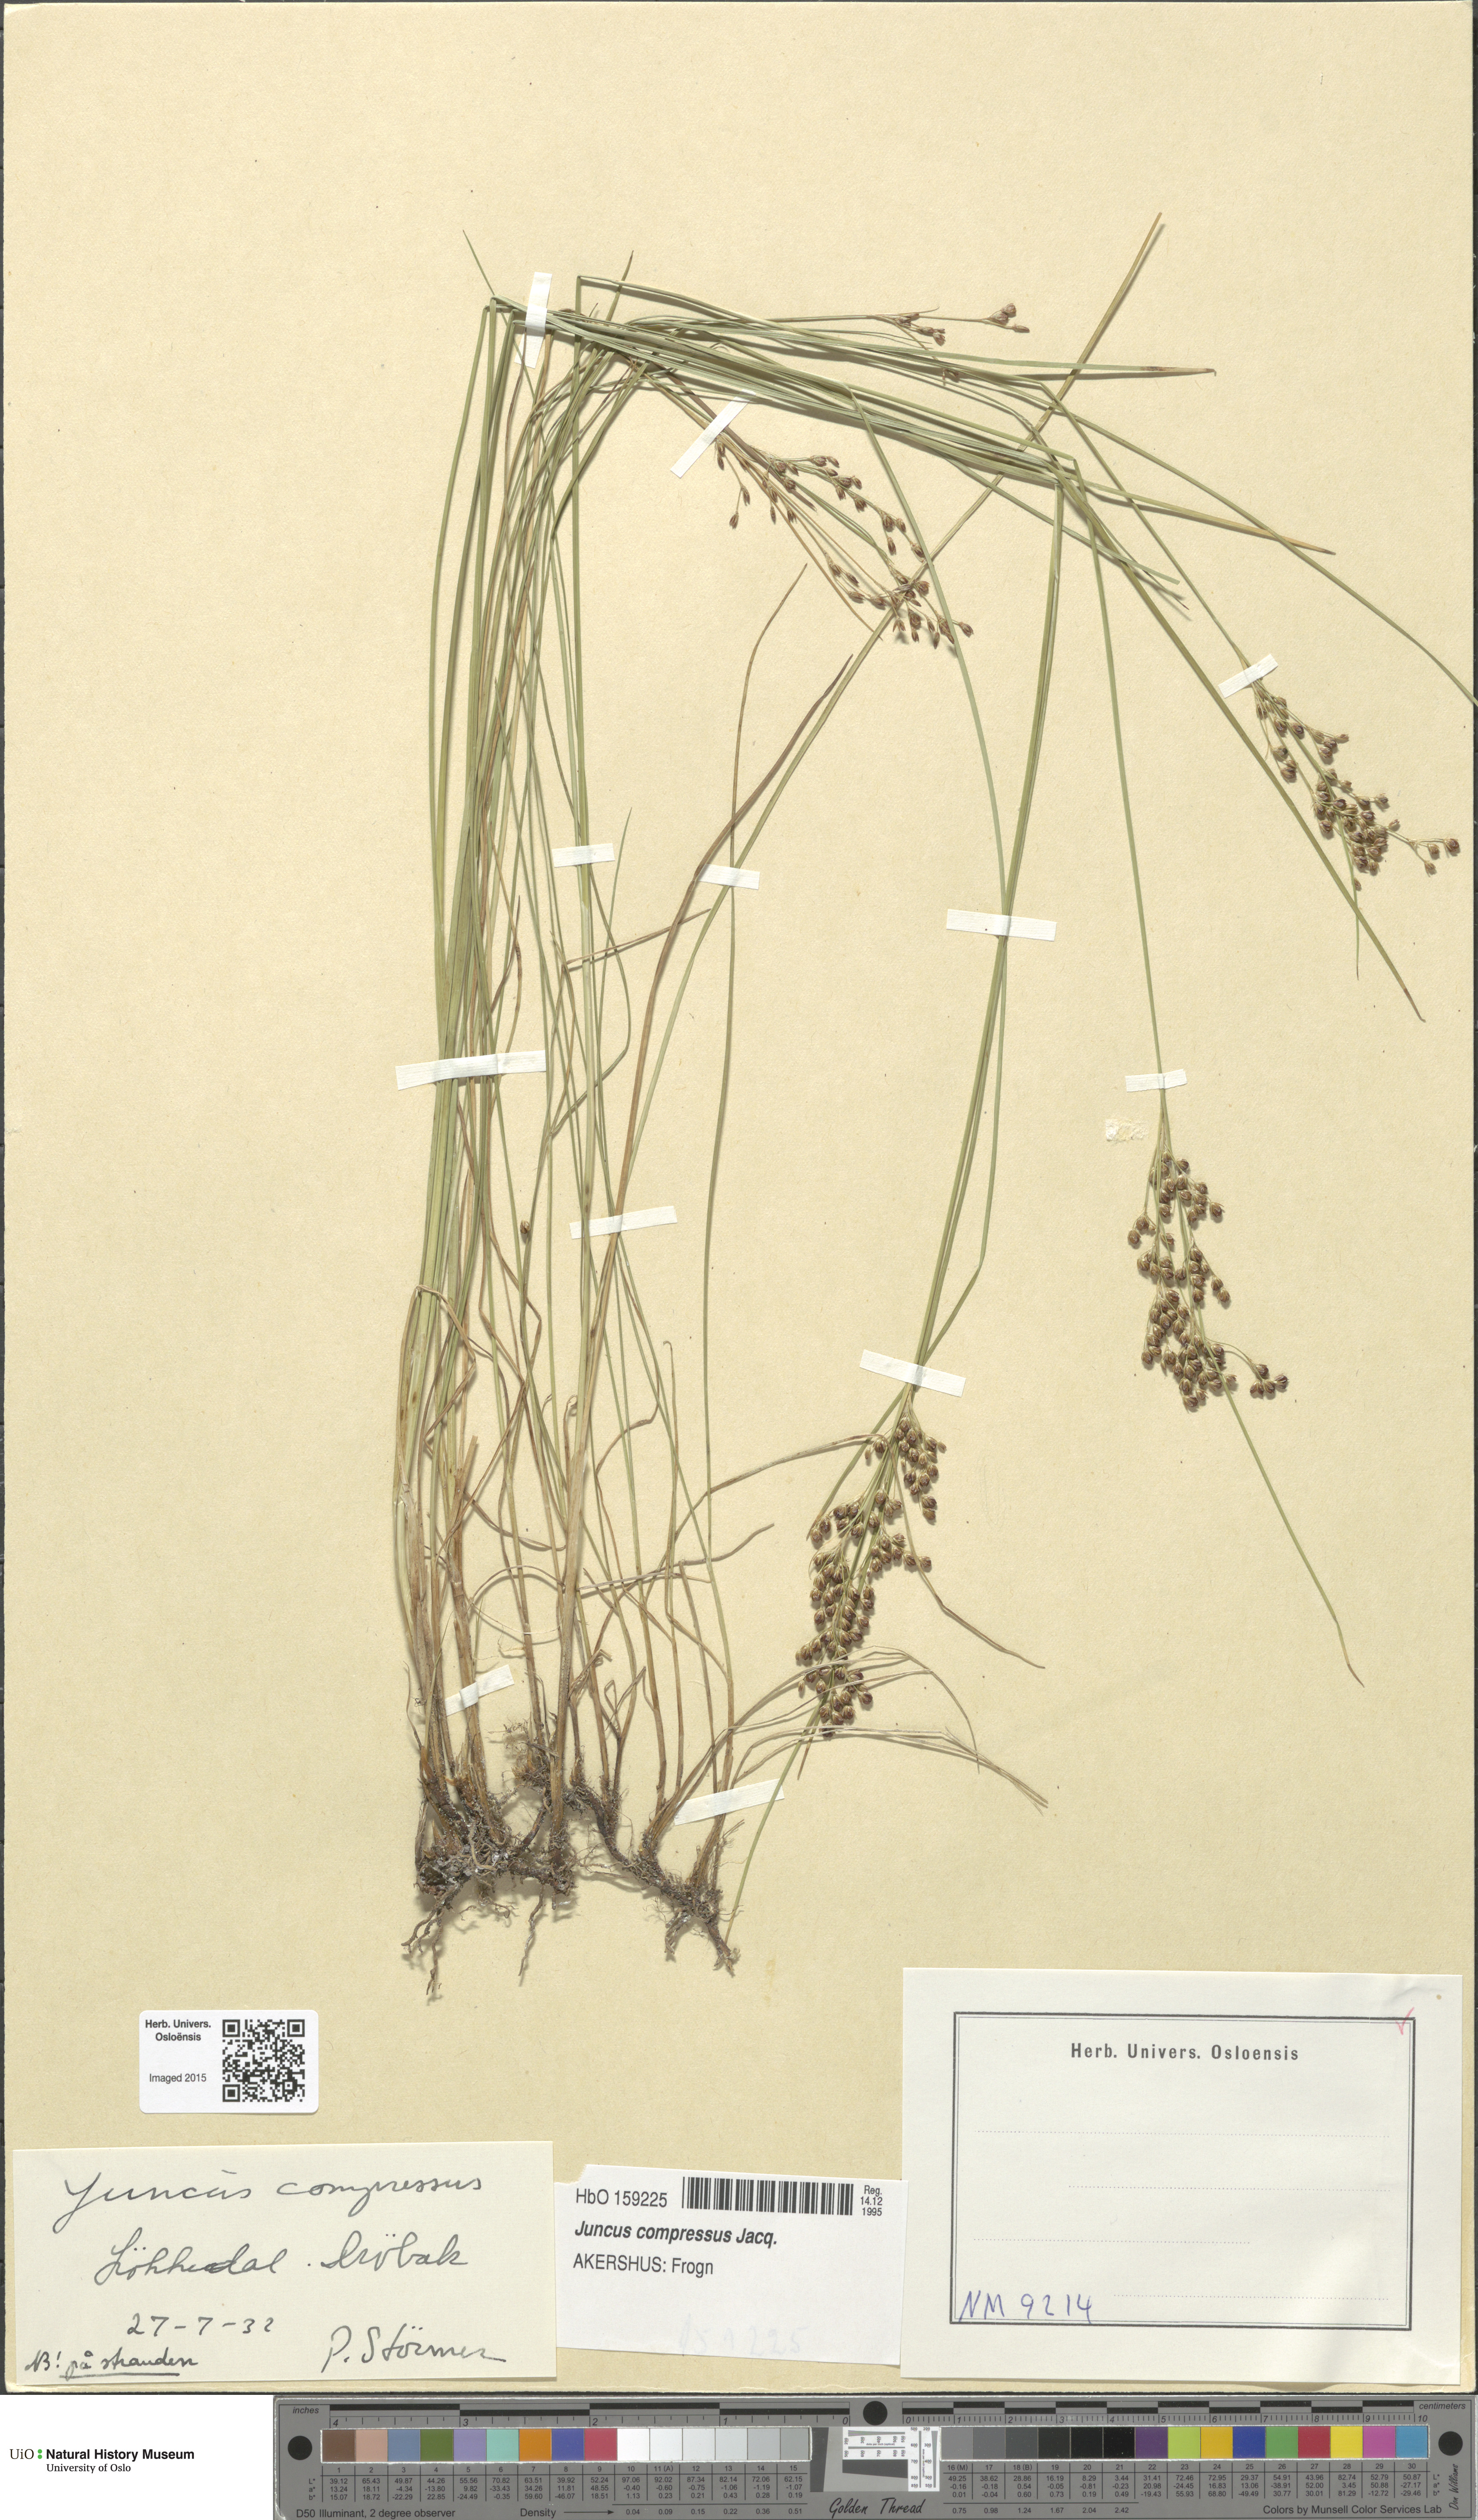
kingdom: Plantae
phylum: Tracheophyta
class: Liliopsida
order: Poales
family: Juncaceae
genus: Juncus
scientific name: Juncus compressus
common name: Round-fruited rush
